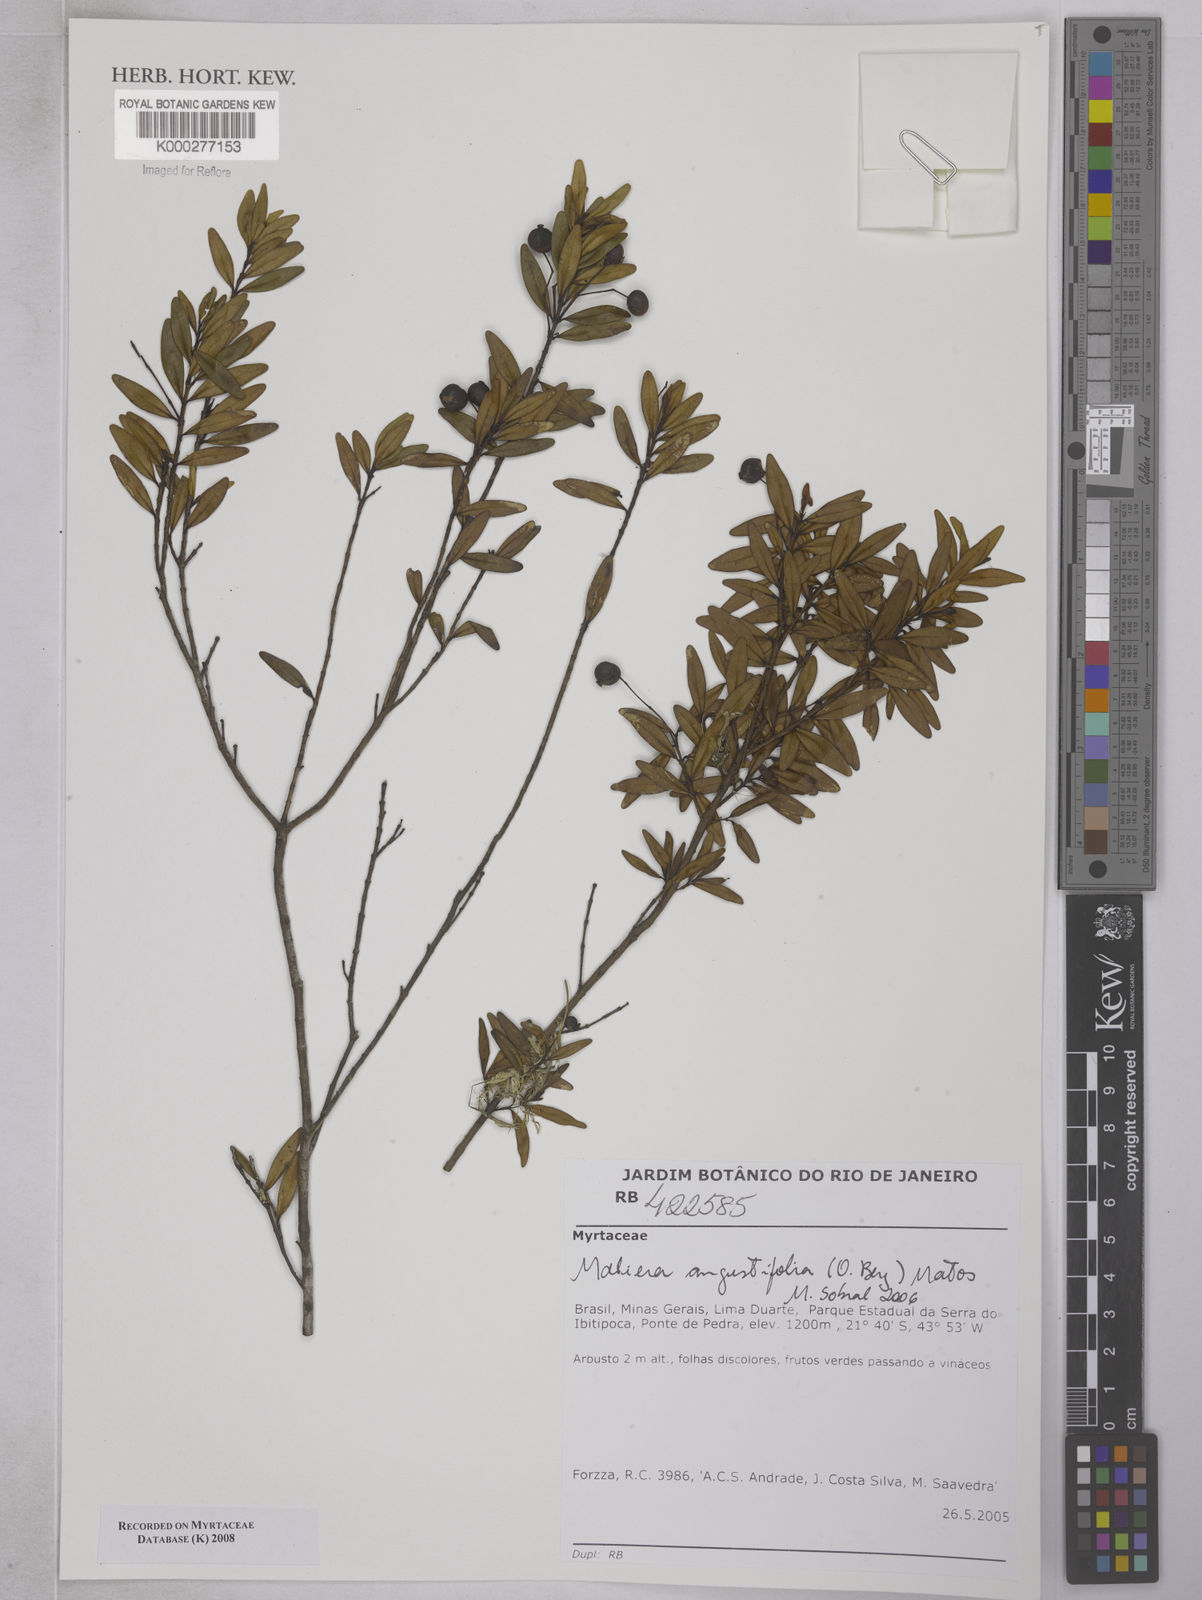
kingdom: Plantae
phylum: Tracheophyta
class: Magnoliopsida
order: Myrtales
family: Myrtaceae
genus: Myrcia
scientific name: Myrcia lenheirensis
